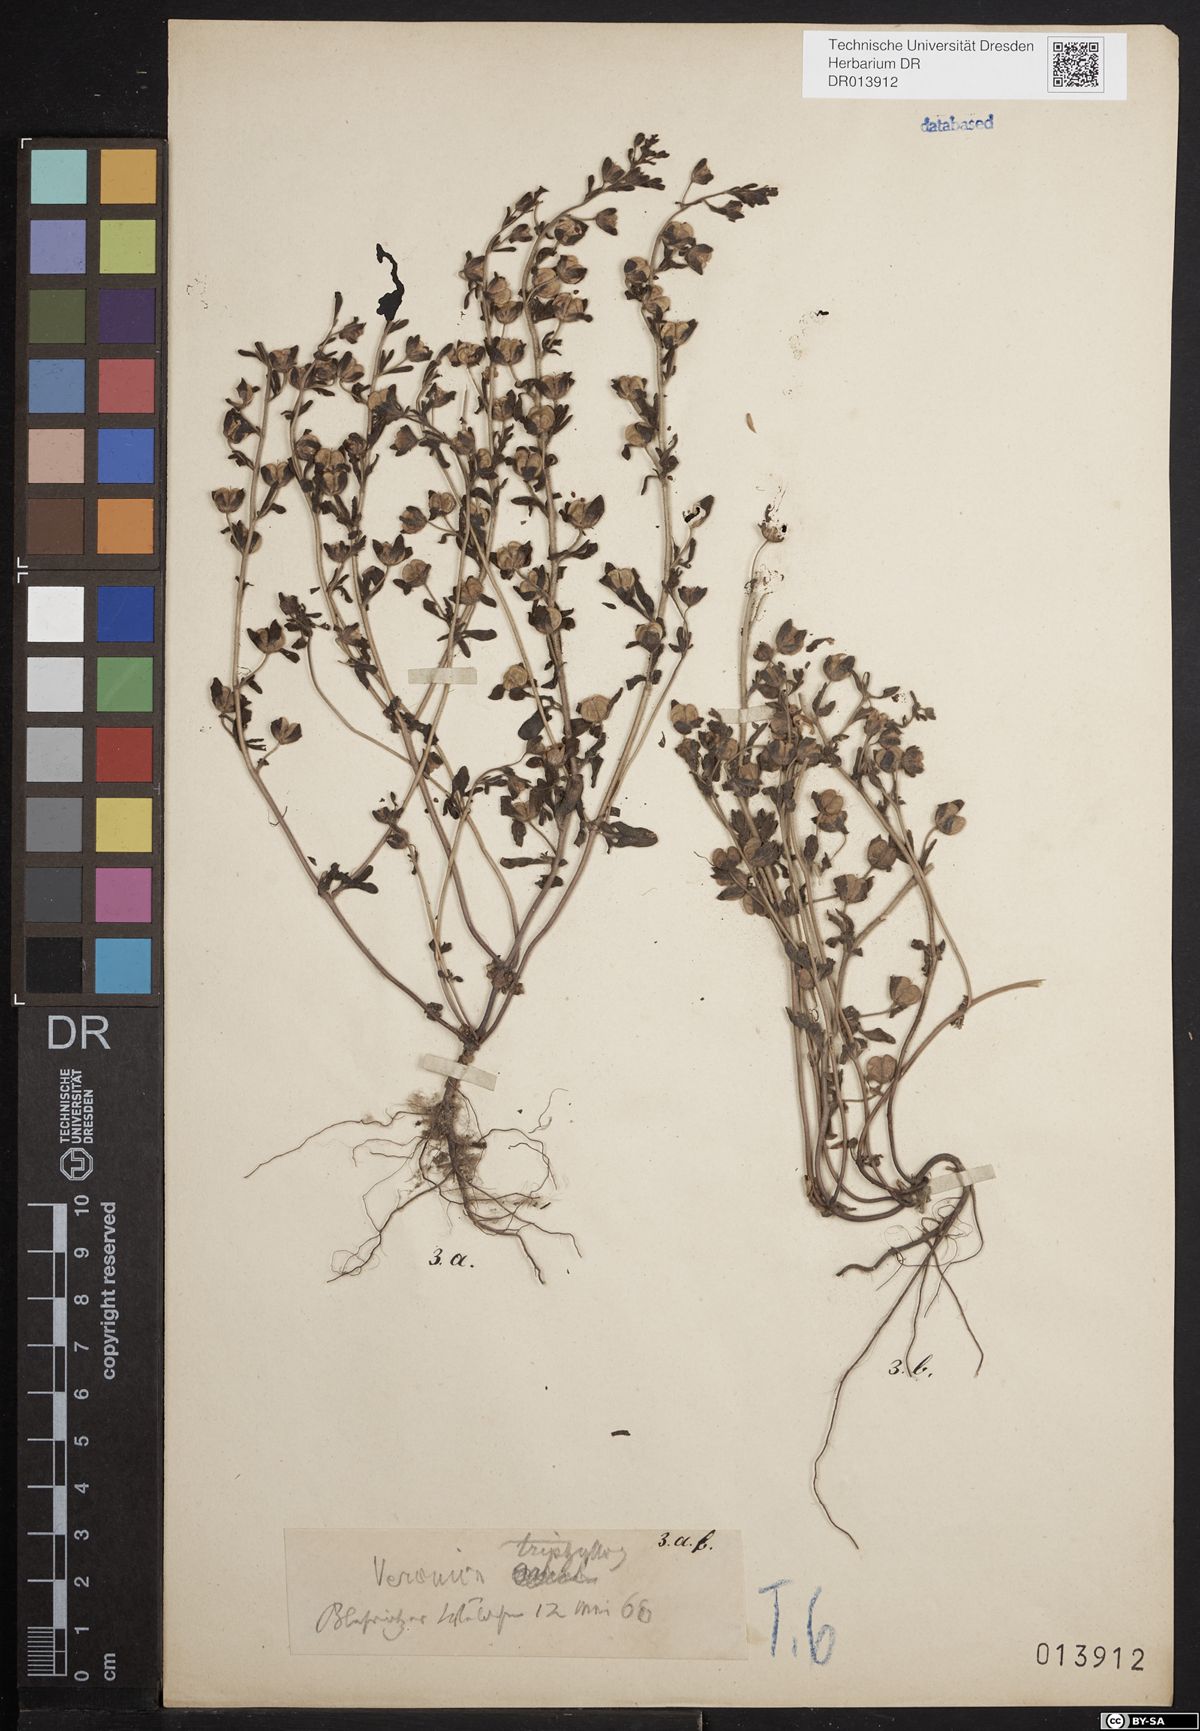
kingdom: Plantae
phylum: Tracheophyta
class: Magnoliopsida
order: Lamiales
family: Plantaginaceae
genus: Veronica
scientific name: Veronica triphyllos
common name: Fingered speedwell
